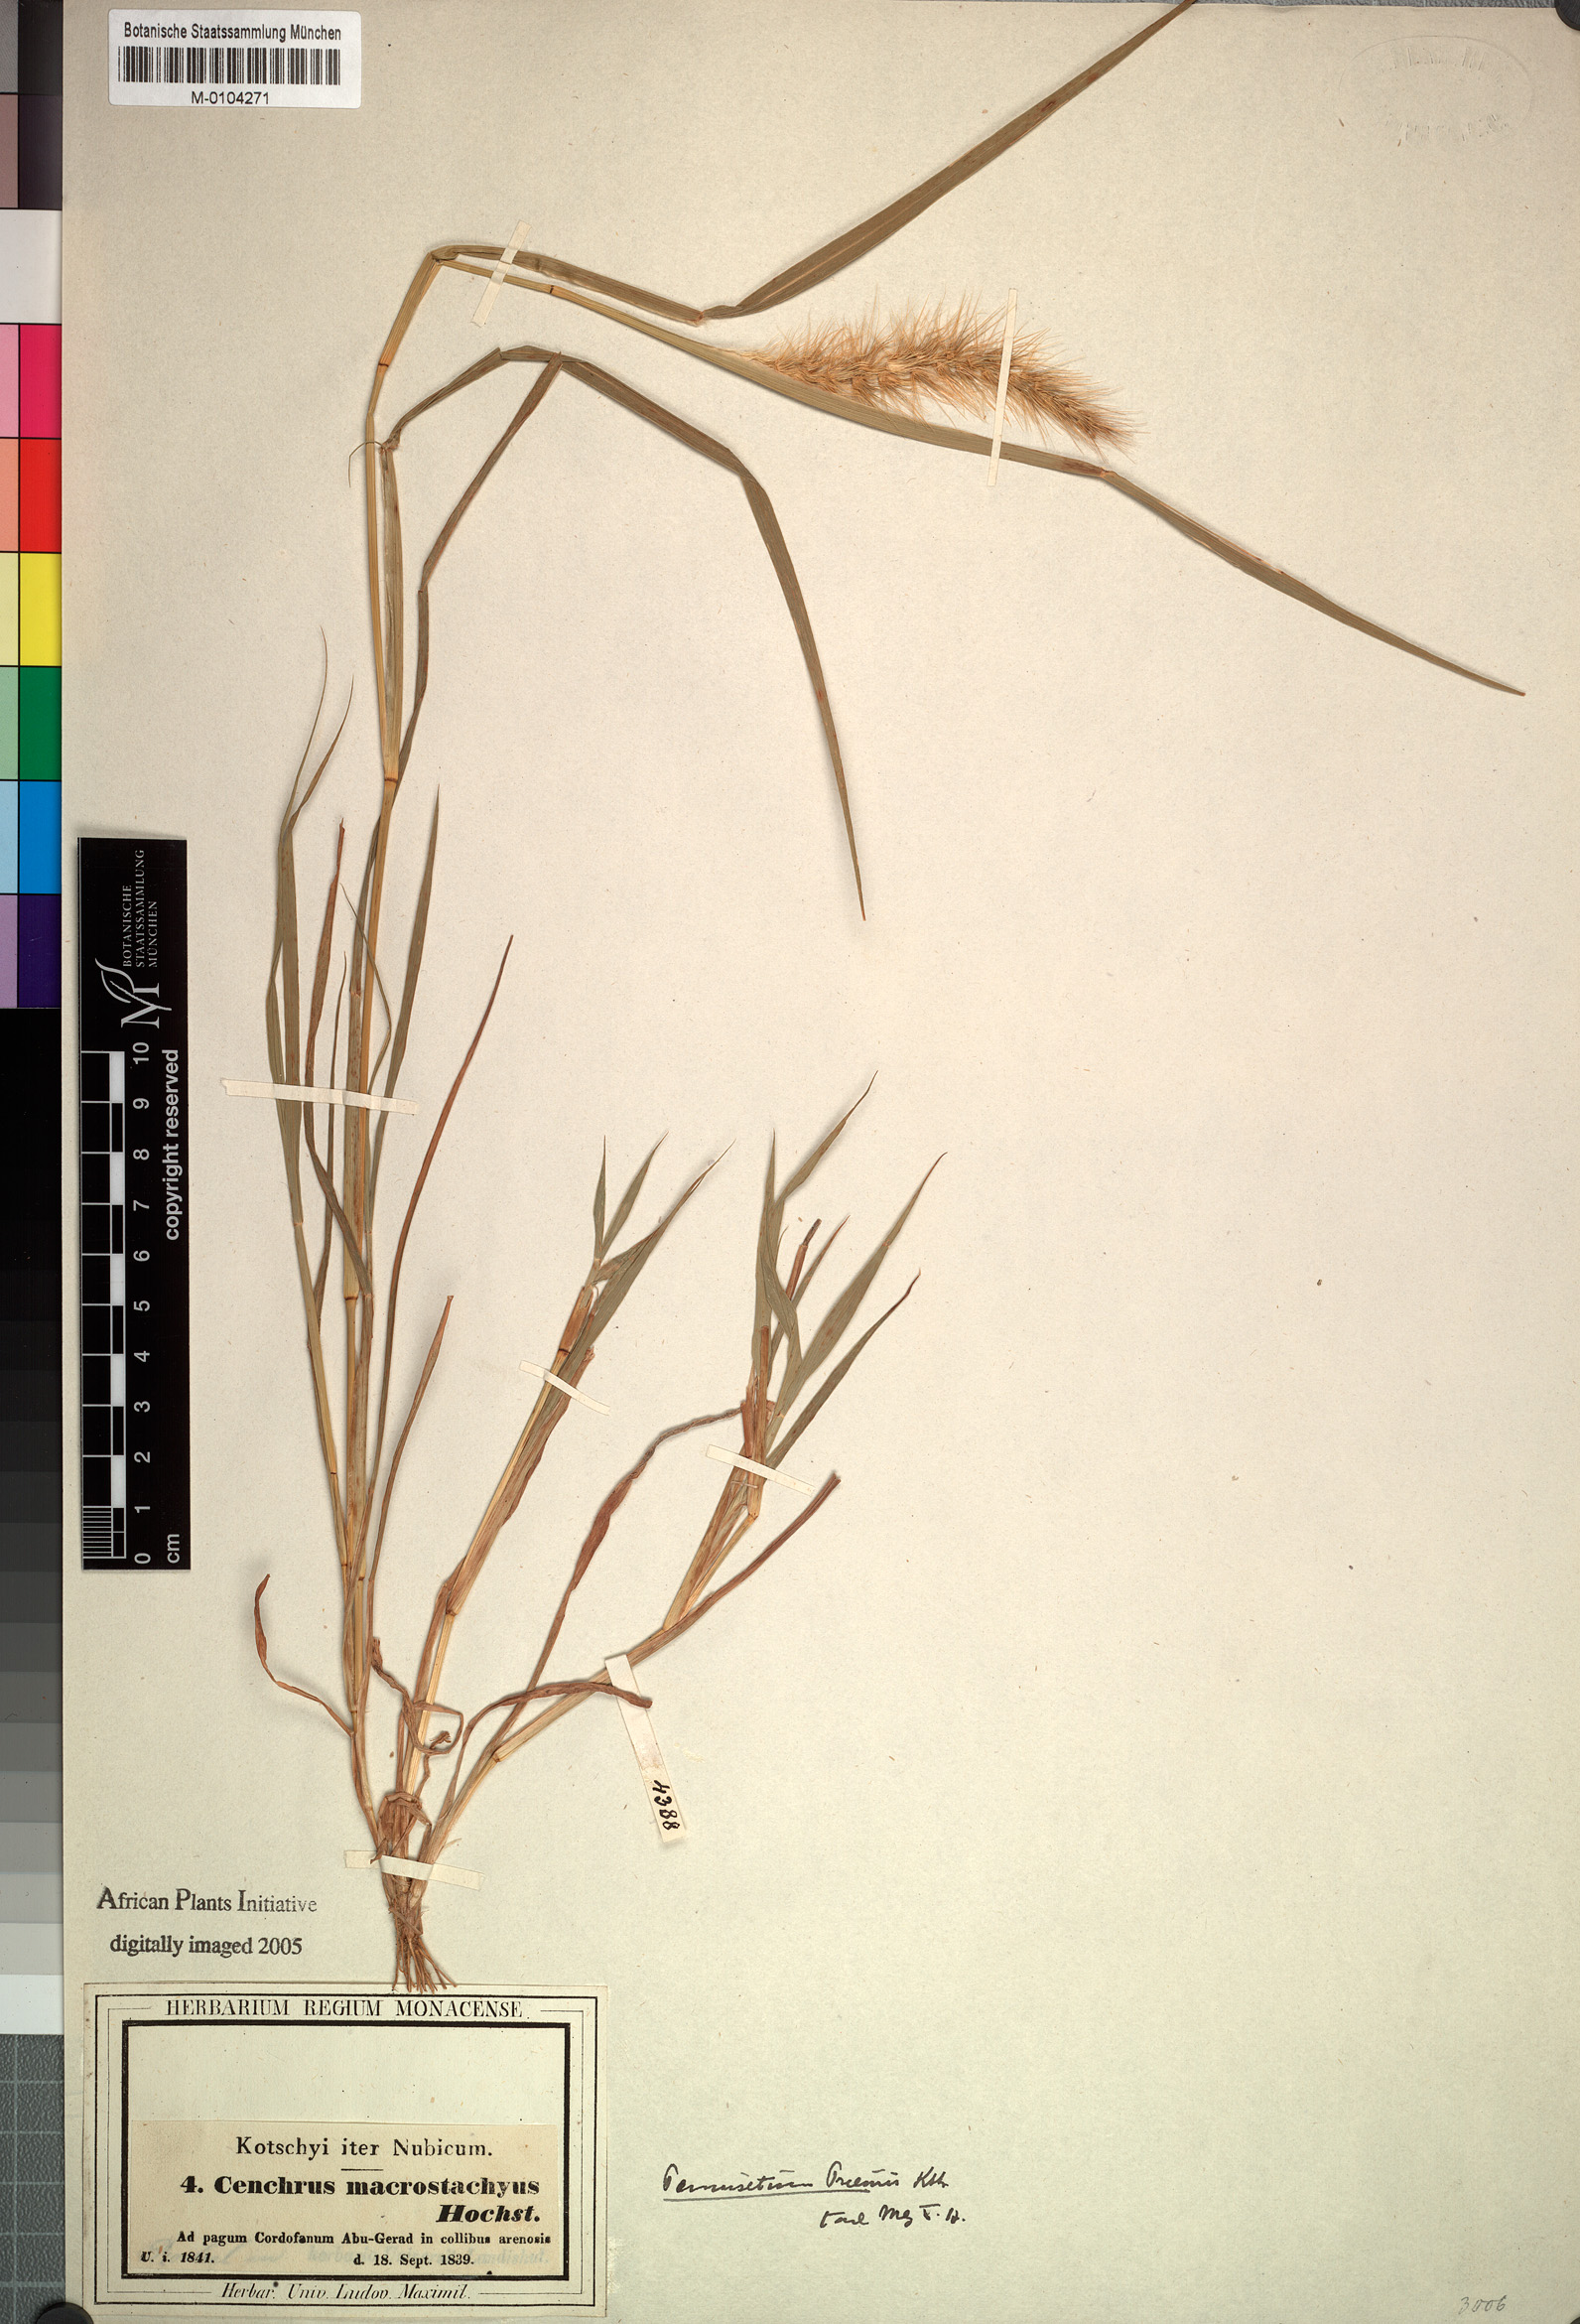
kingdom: Plantae
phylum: Tracheophyta
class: Liliopsida
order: Poales
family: Poaceae
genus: Cenchrus
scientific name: Cenchrus prieurii
